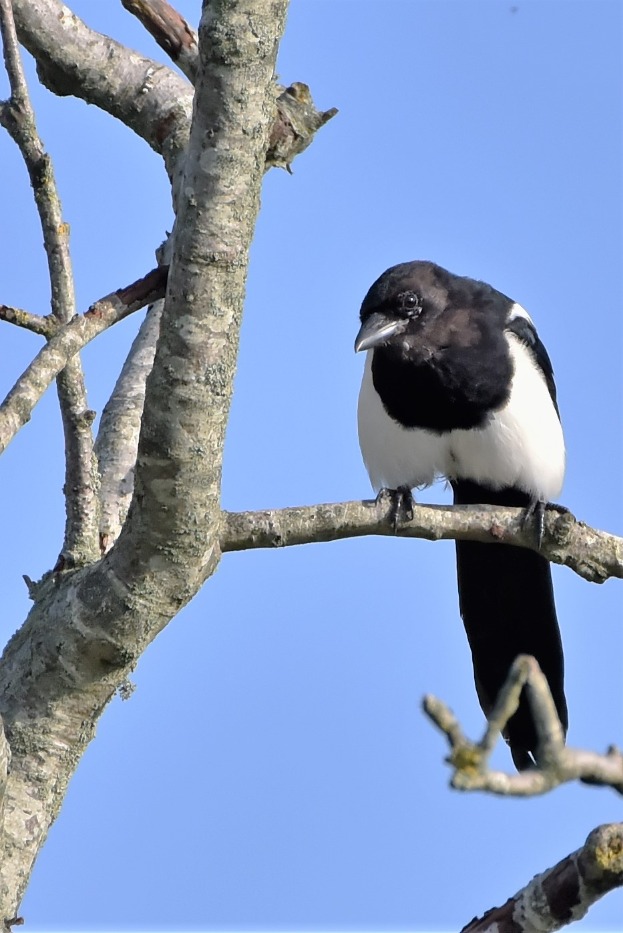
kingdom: Animalia
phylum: Chordata
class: Aves
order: Passeriformes
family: Corvidae
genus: Pica
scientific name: Pica pica
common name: Husskade
